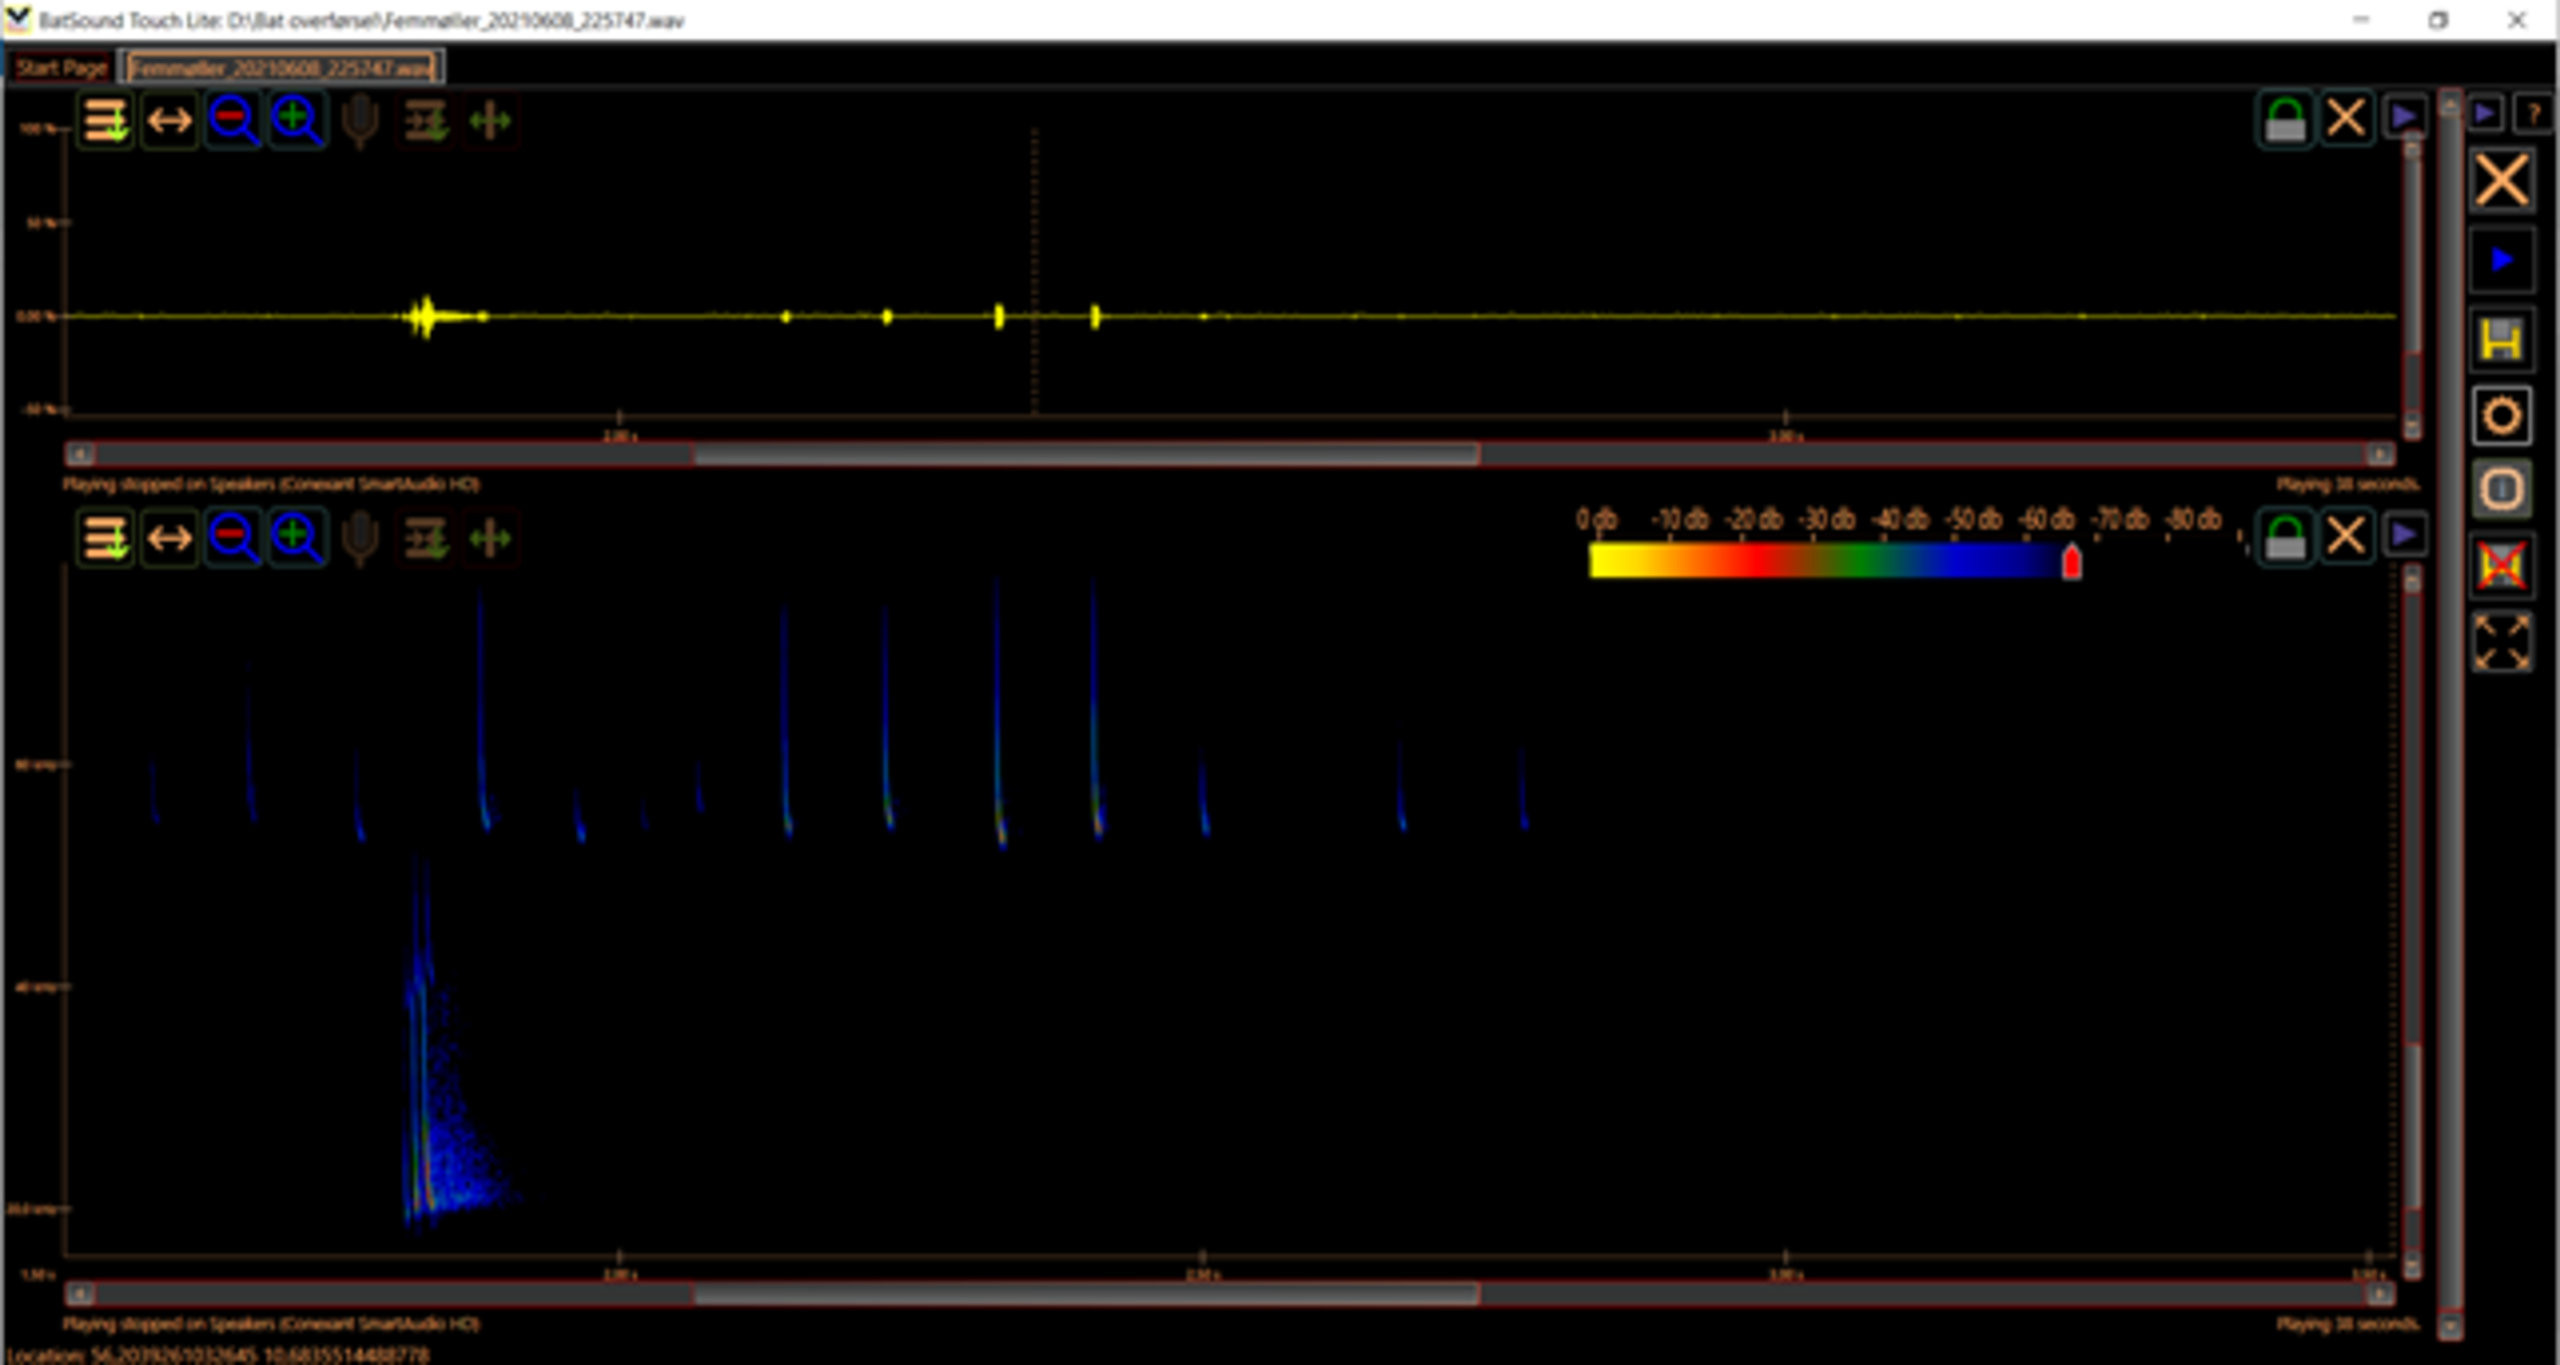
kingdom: Animalia
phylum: Chordata
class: Mammalia
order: Chiroptera
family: Vespertilionidae
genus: Pipistrellus
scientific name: Pipistrellus pygmaeus
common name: Dværgflagermus
